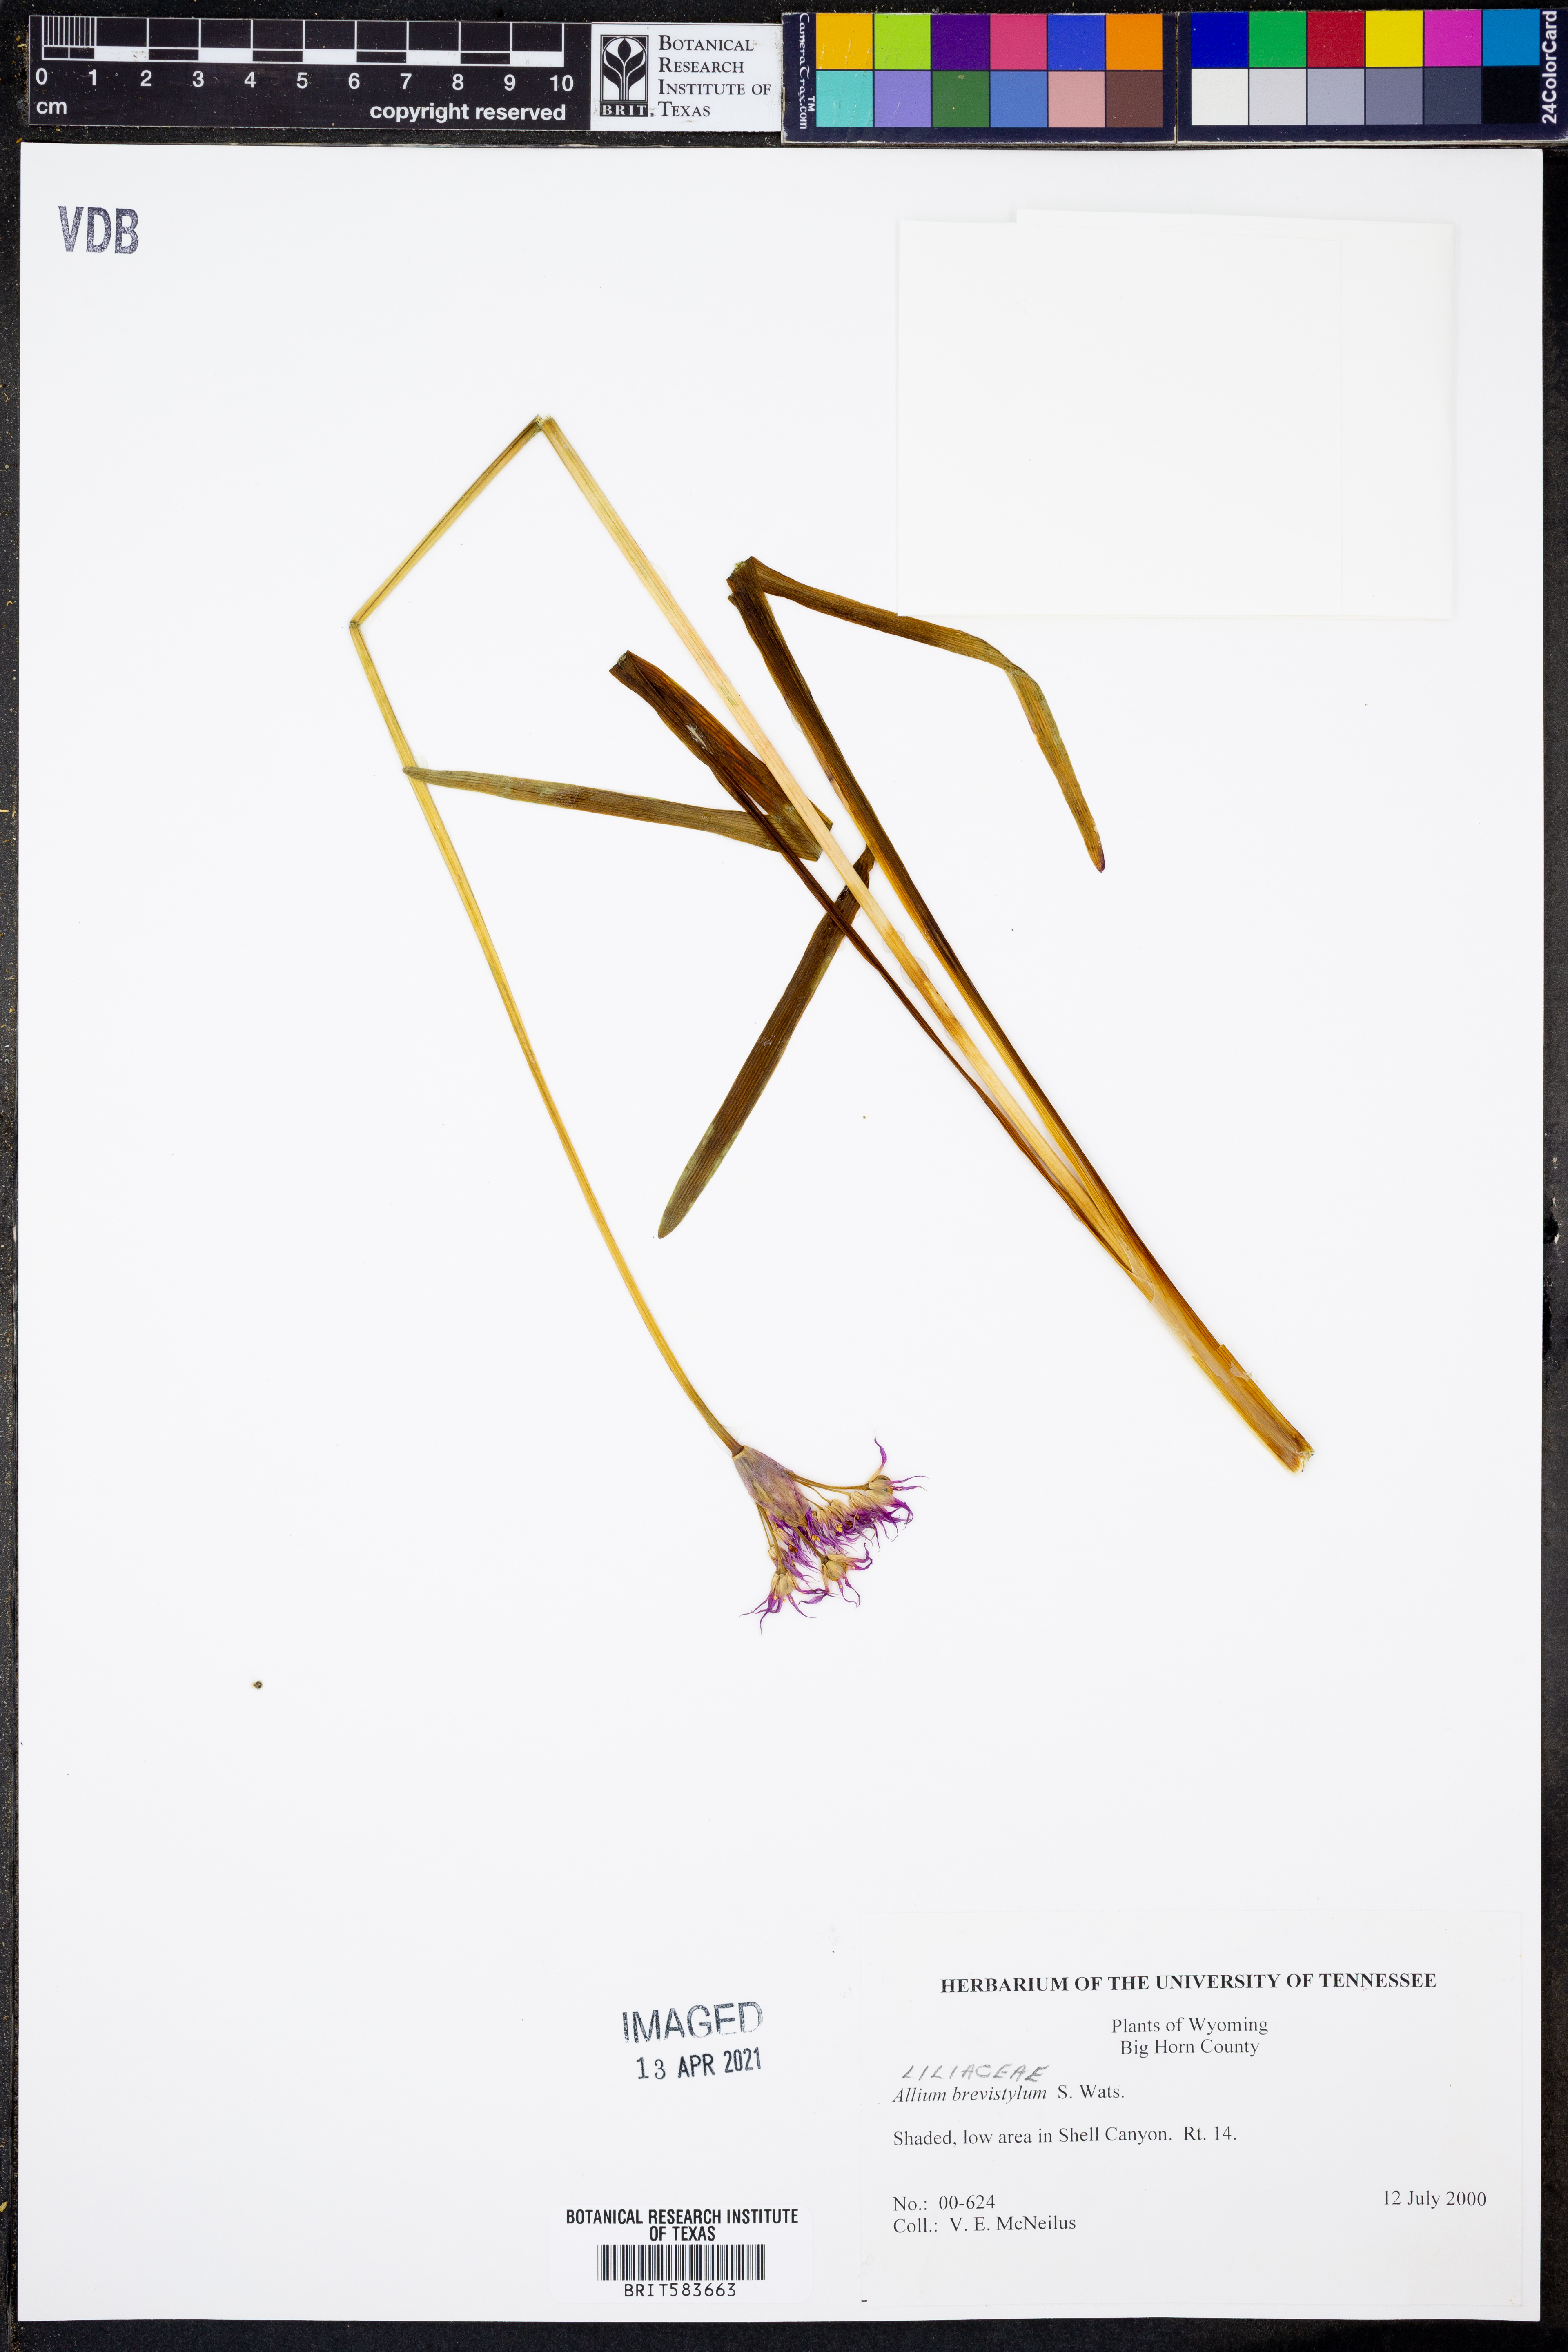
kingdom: Plantae
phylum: Tracheophyta
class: Liliopsida
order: Asparagales
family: Amaryllidaceae
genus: Allium
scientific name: Allium brevistylum
